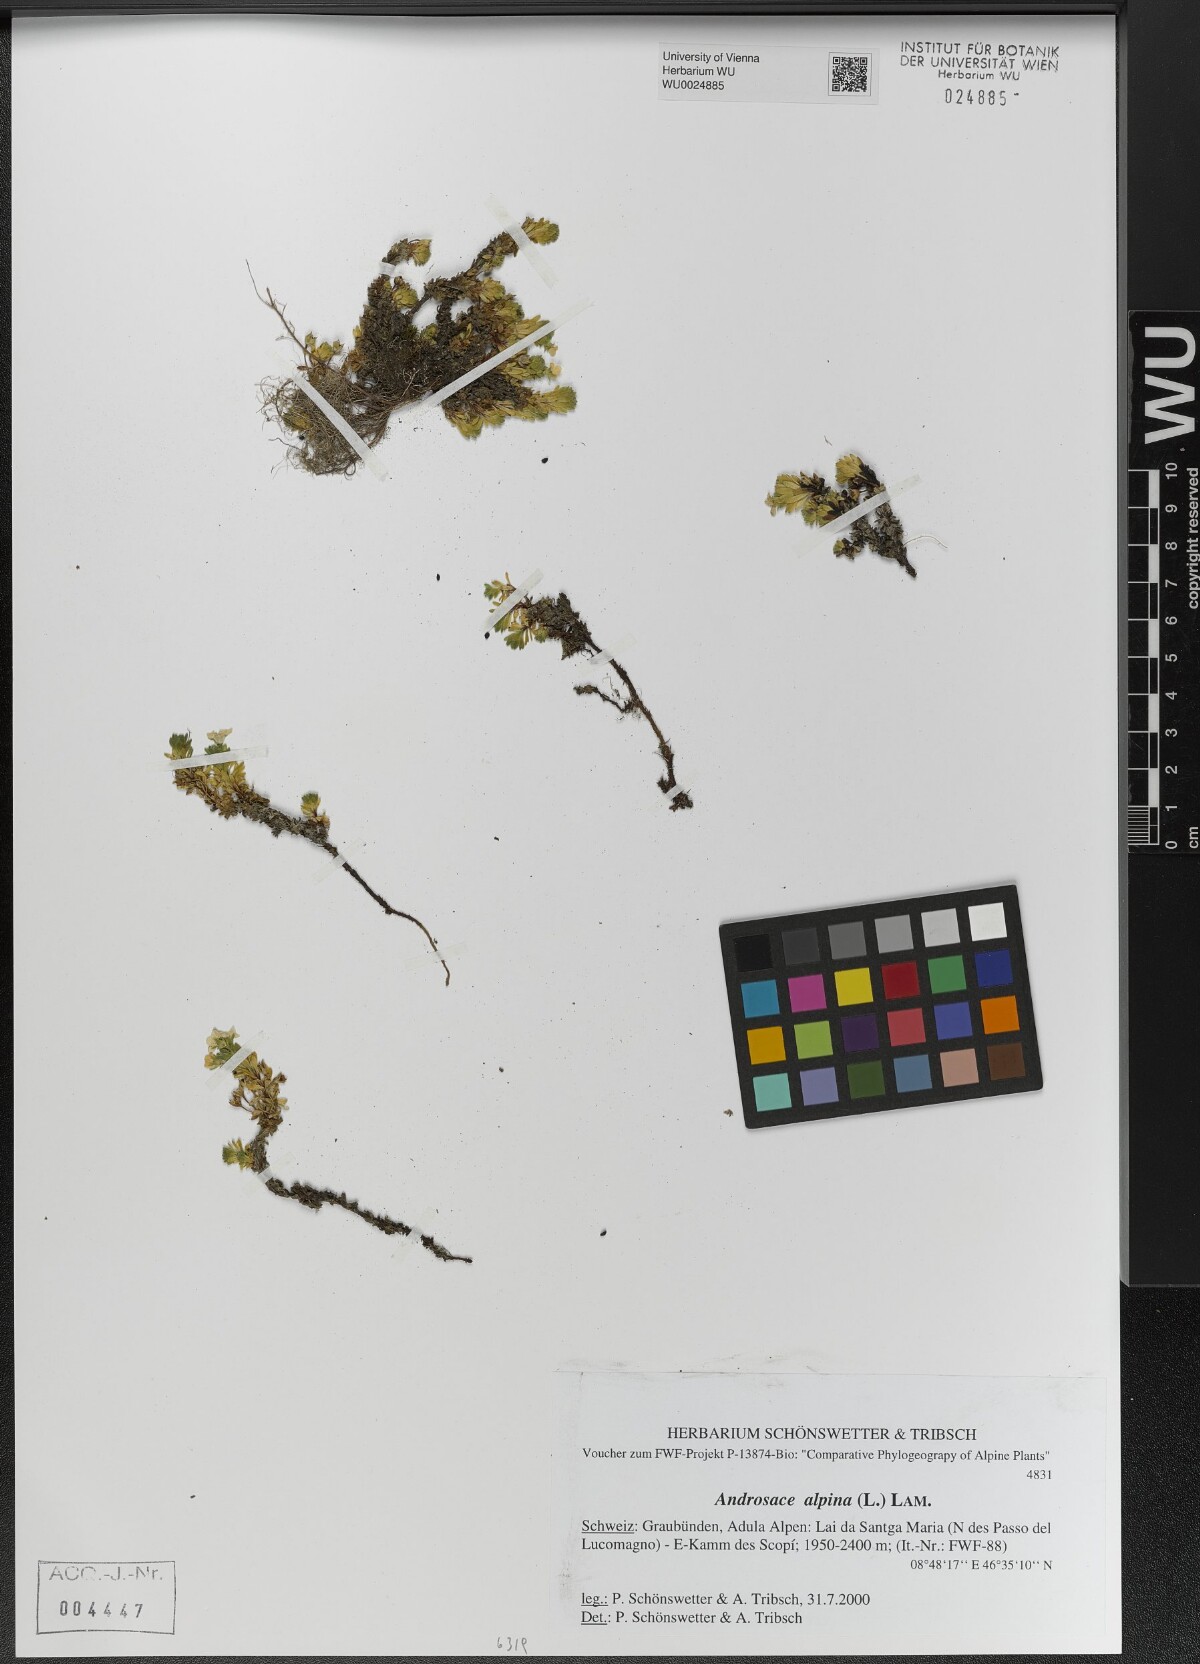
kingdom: Plantae
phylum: Tracheophyta
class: Magnoliopsida
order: Ericales
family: Primulaceae
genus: Androsace
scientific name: Androsace alpina
